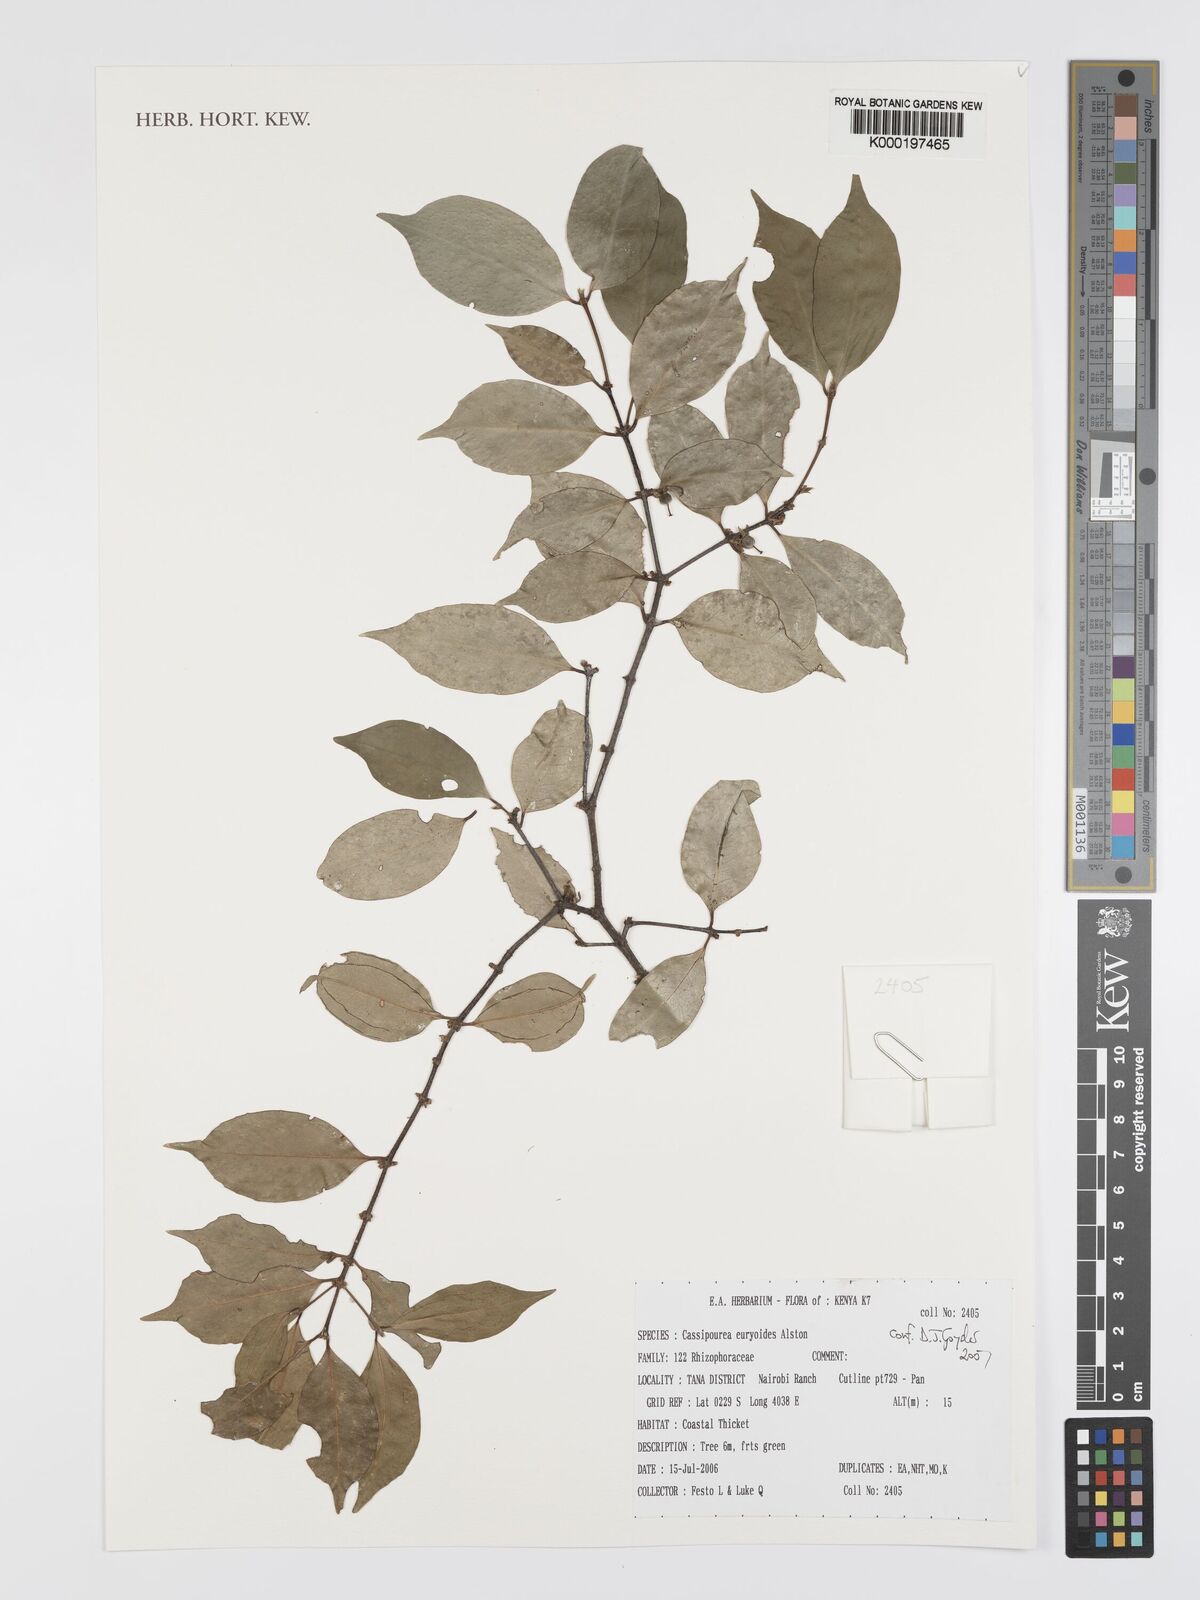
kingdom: Plantae
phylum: Tracheophyta
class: Magnoliopsida
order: Malpighiales
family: Rhizophoraceae
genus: Cassipourea
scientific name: Cassipourea euryoides
